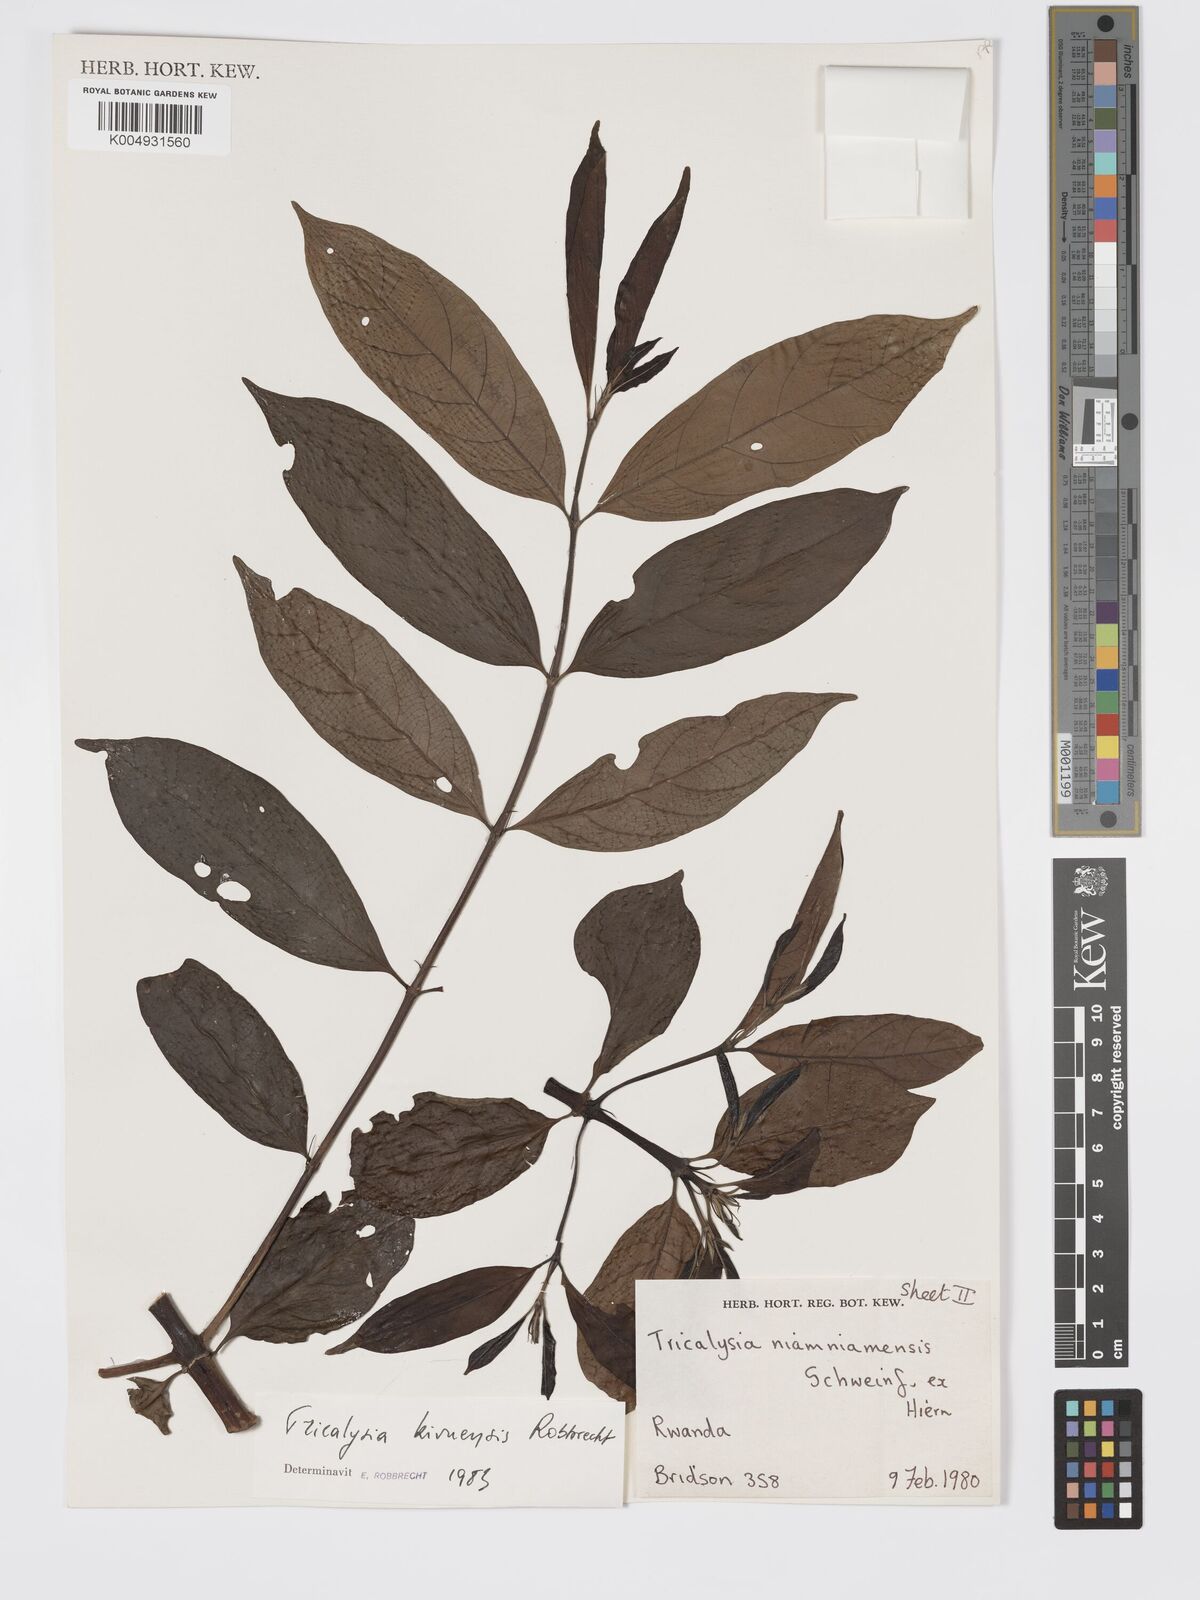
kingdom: Plantae
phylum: Tracheophyta
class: Magnoliopsida
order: Gentianales
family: Rubiaceae
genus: Tricalysia
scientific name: Tricalysia kivuensis
